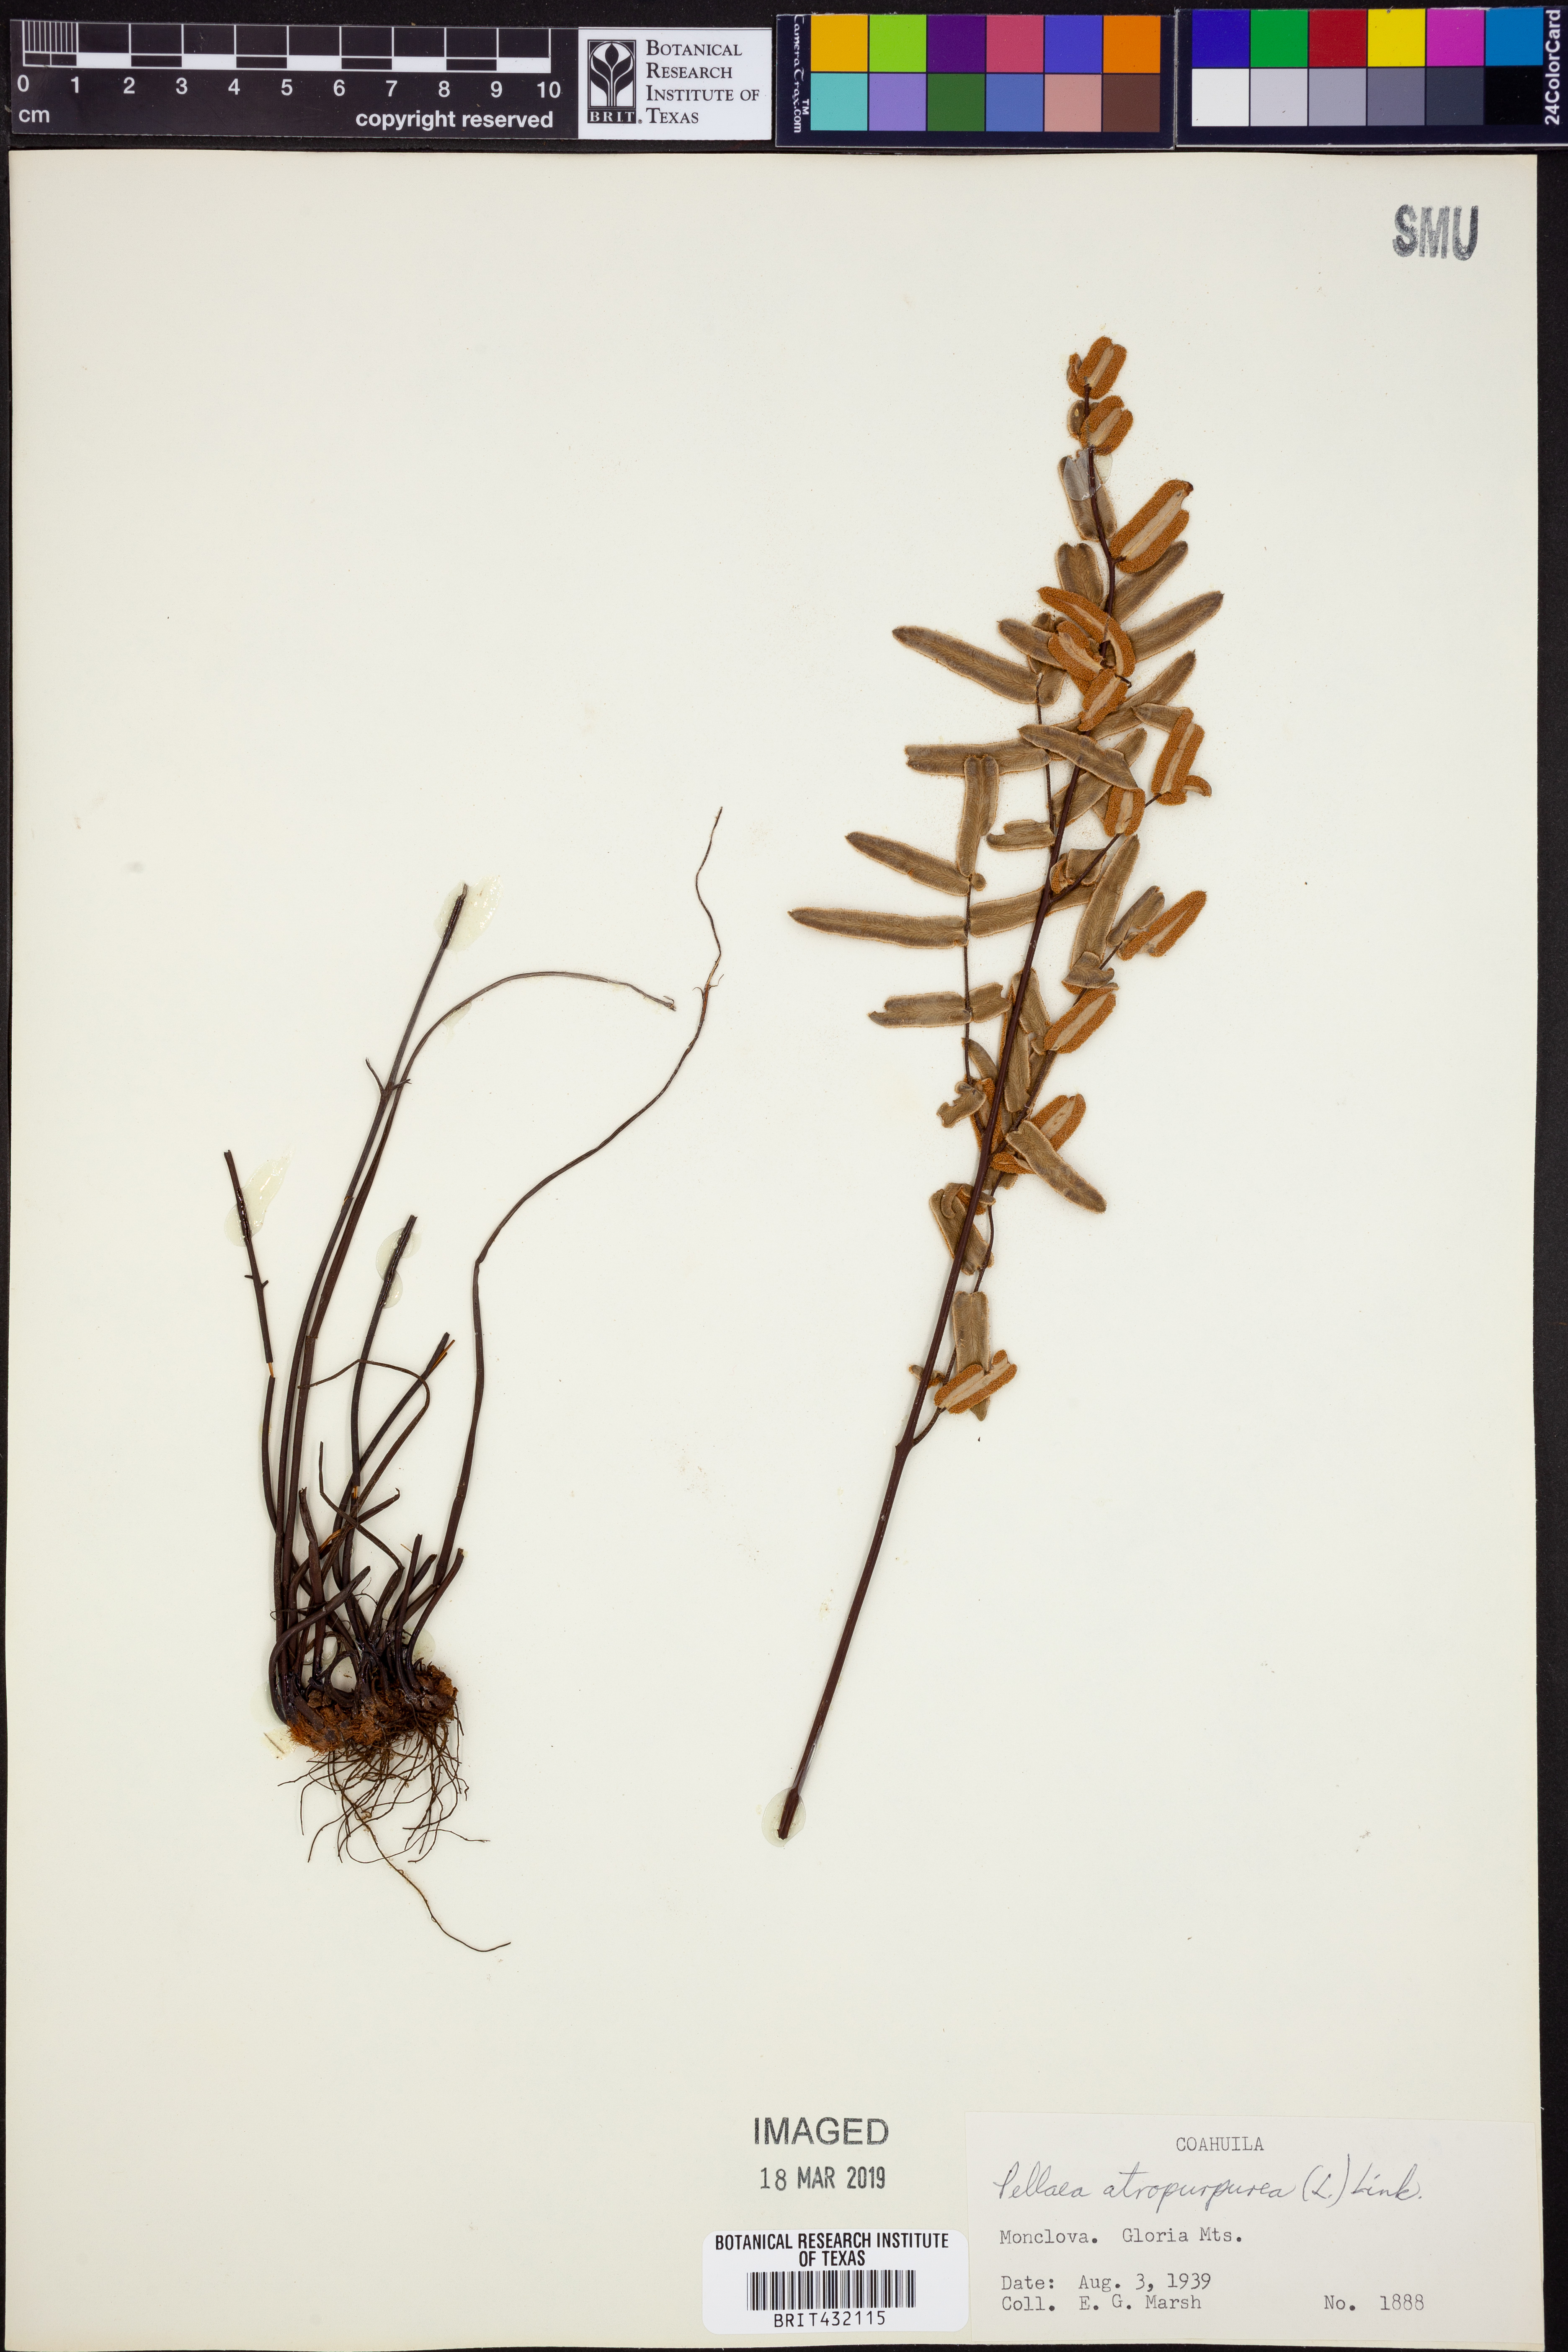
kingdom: Plantae
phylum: Tracheophyta
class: Polypodiopsida
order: Polypodiales
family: Pteridaceae
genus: Pellaea
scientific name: Pellaea atropurpurea
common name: Hairy cliffbrake
